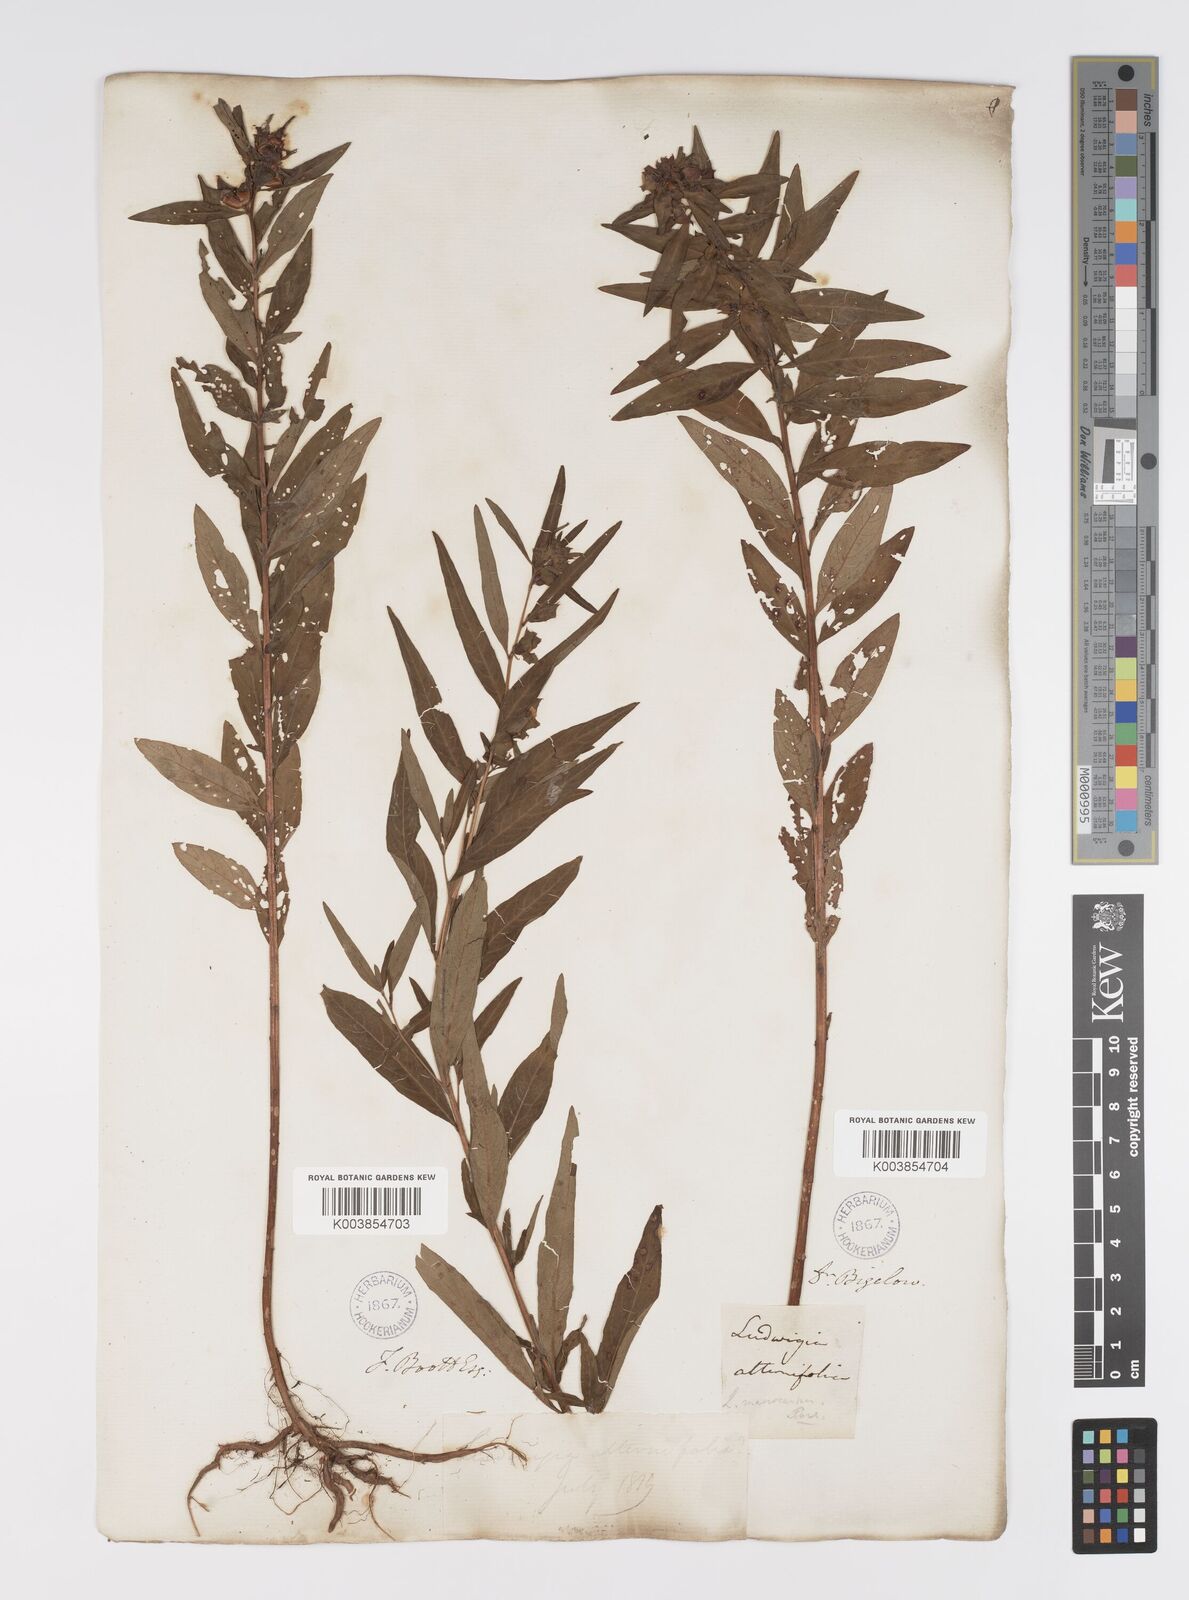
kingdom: Plantae
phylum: Tracheophyta
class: Magnoliopsida
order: Myrtales
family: Onagraceae
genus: Ludwigia
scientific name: Ludwigia alternifolia
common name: Rattlebox
